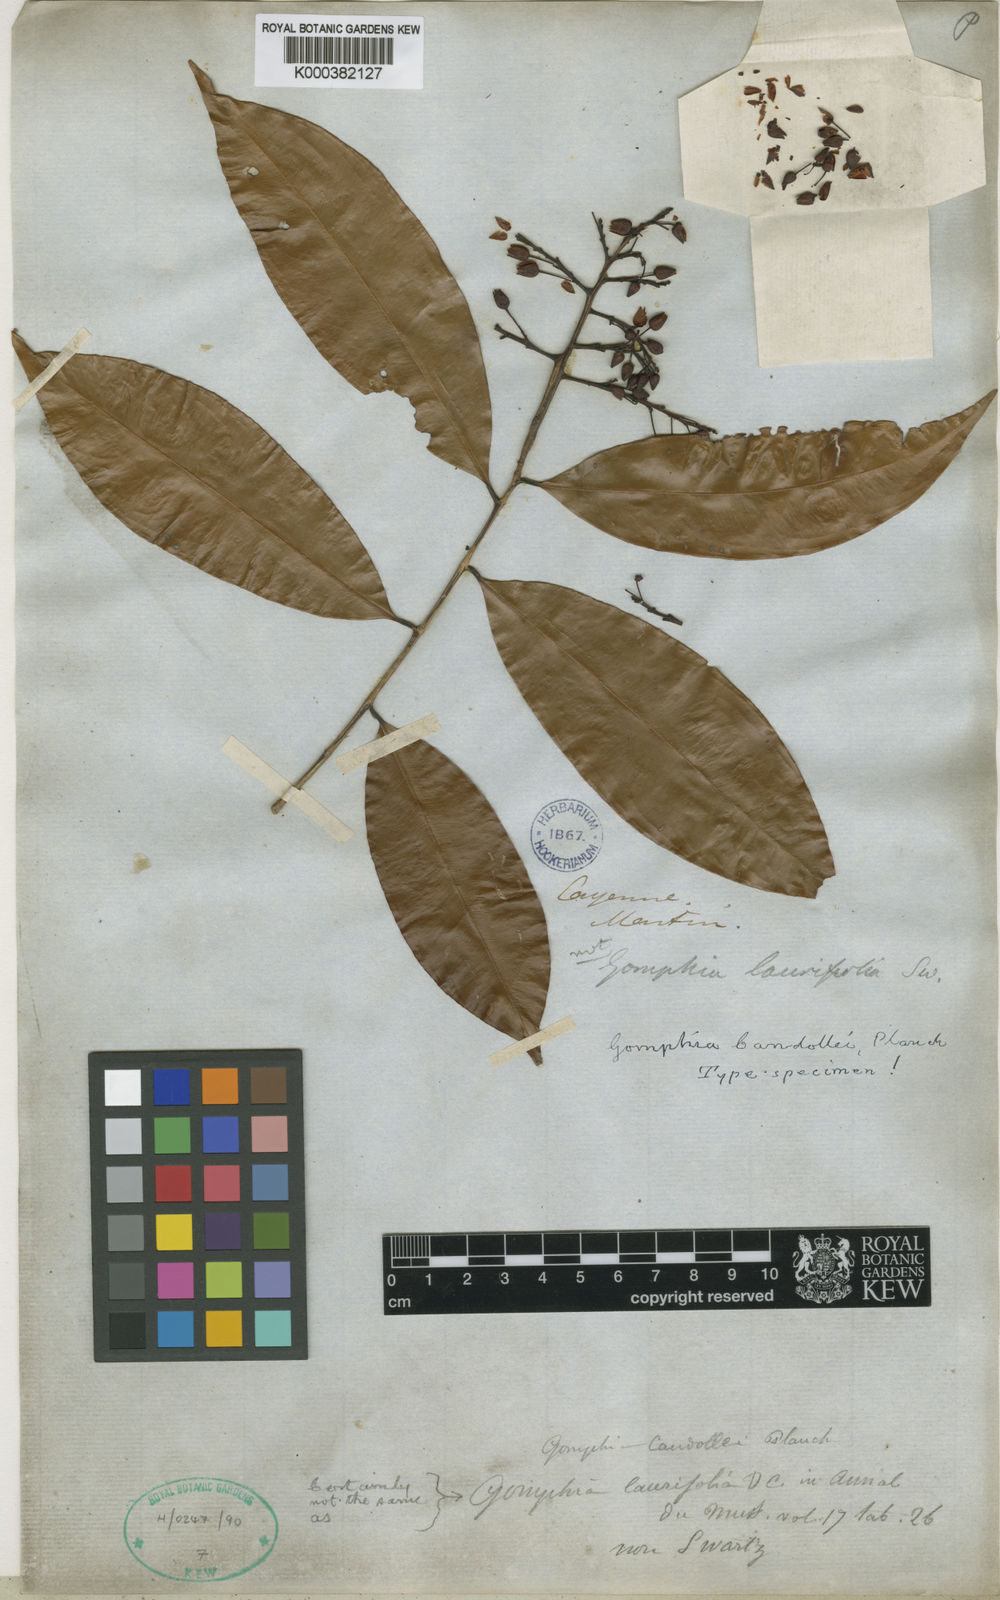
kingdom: Plantae
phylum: Tracheophyta
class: Magnoliopsida
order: Malpighiales
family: Ochnaceae
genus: Ouratea
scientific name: Ouratea
